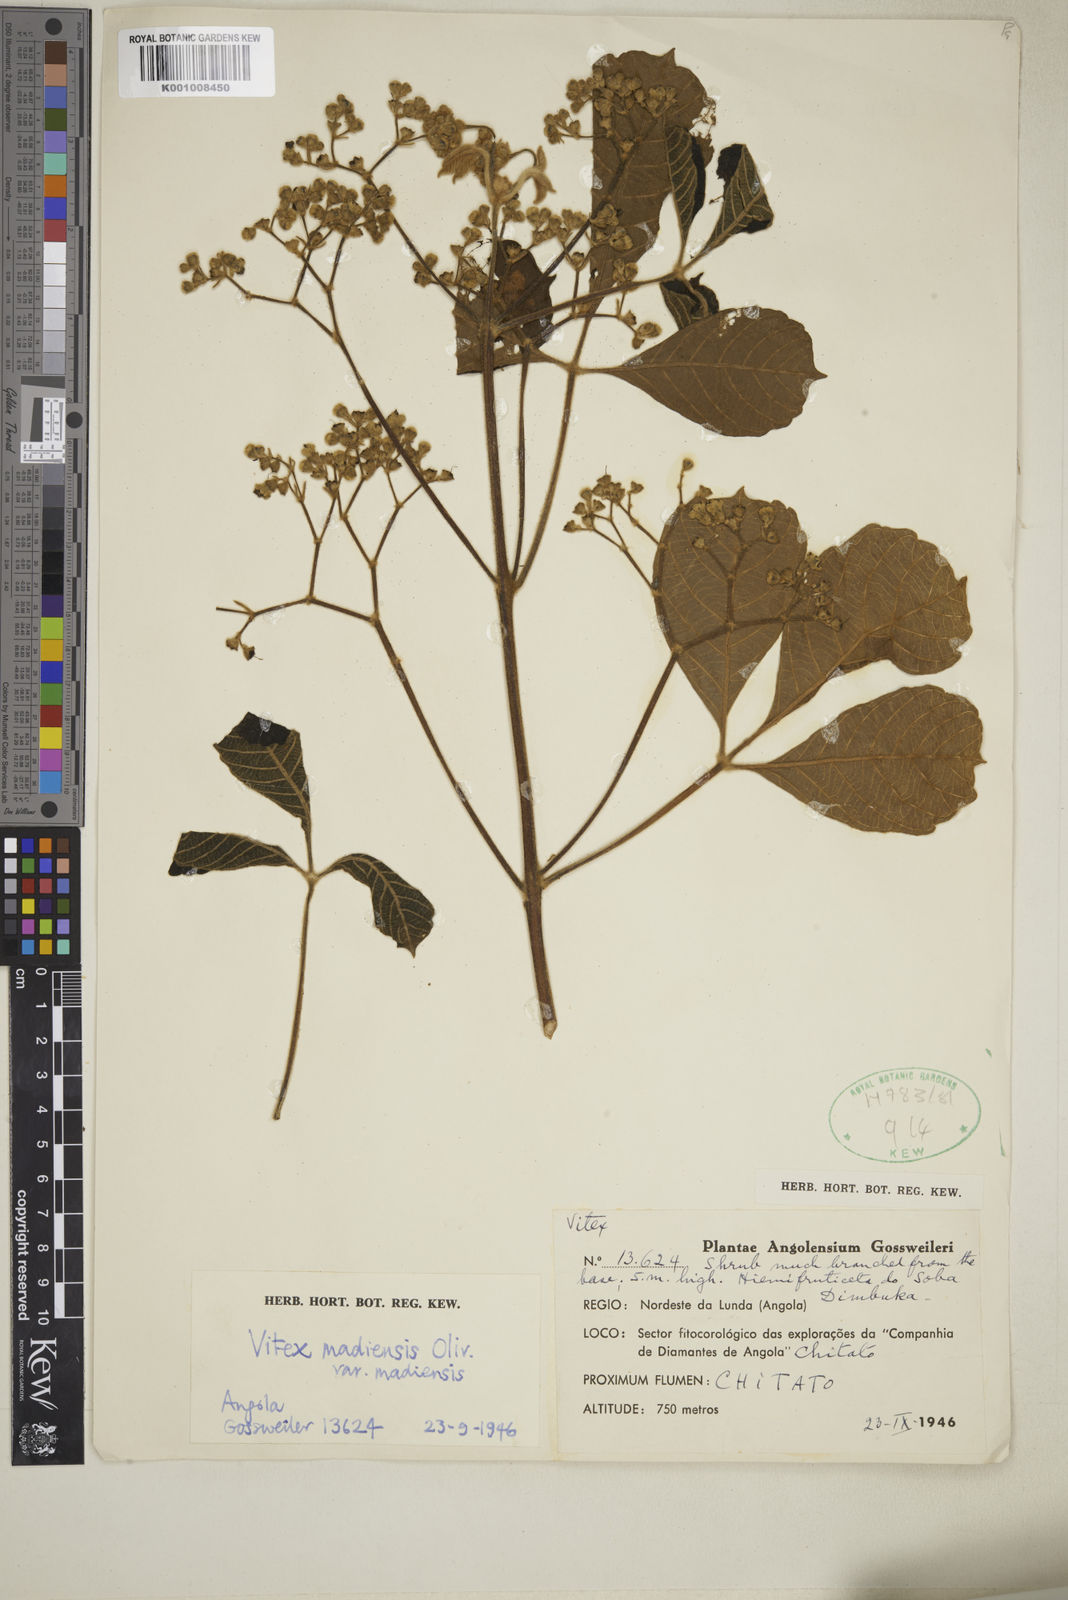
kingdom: Plantae
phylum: Tracheophyta
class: Magnoliopsida
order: Lamiales
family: Lamiaceae
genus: Vitex
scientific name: Vitex madiensis
